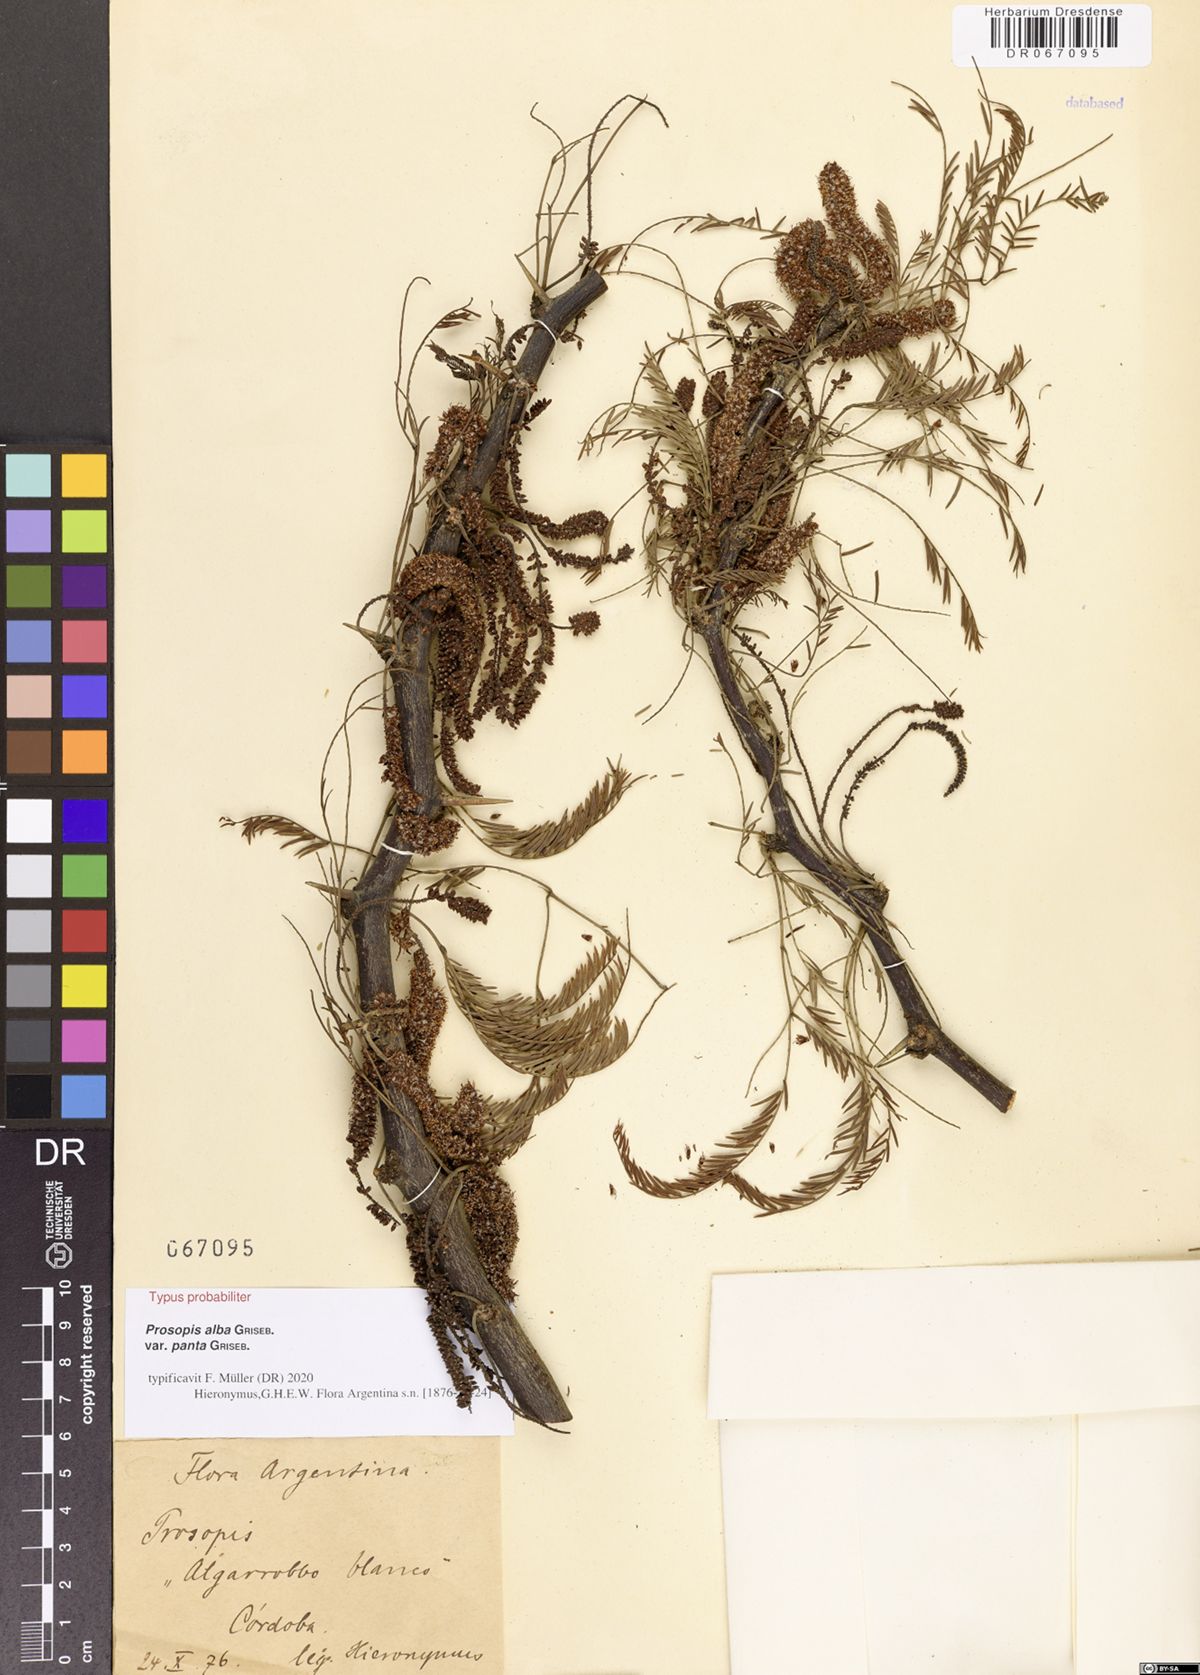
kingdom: Plantae
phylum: Tracheophyta
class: Magnoliopsida
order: Fabales
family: Fabaceae
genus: Prosopis
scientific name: Prosopis alba
